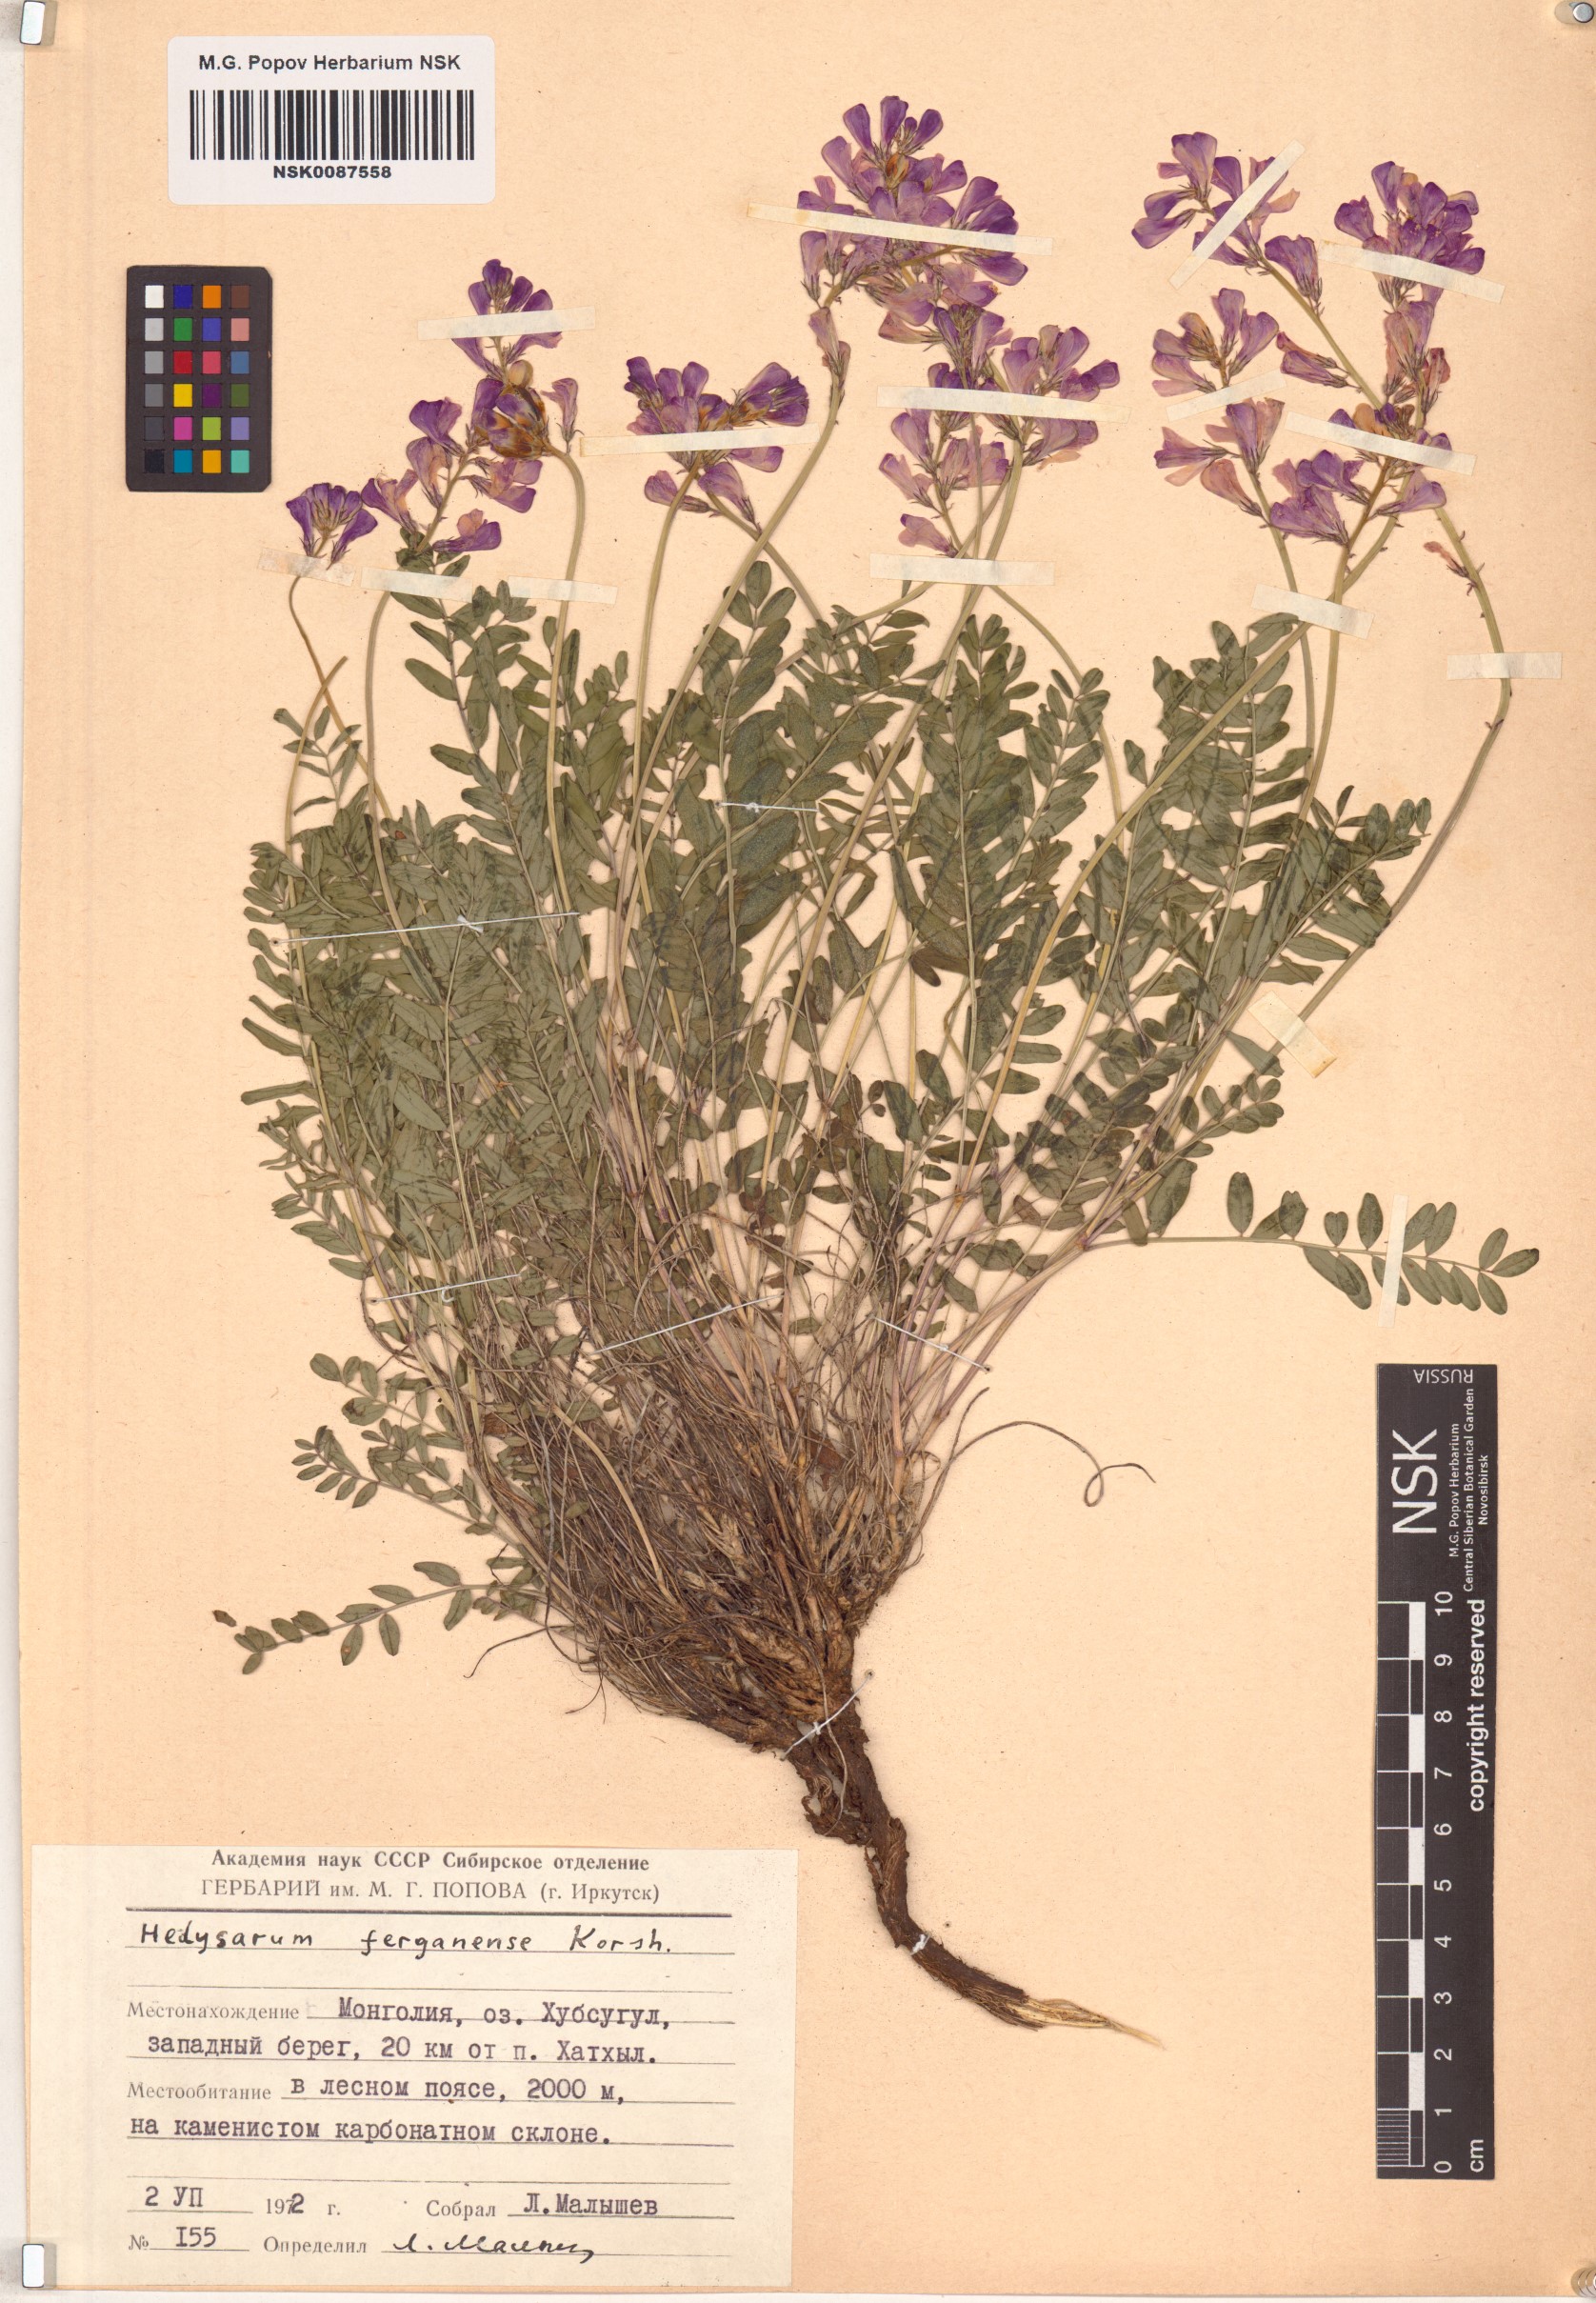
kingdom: Plantae
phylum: Tracheophyta
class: Magnoliopsida
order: Fabales
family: Fabaceae
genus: Hedysarum
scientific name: Hedysarum ferganense
